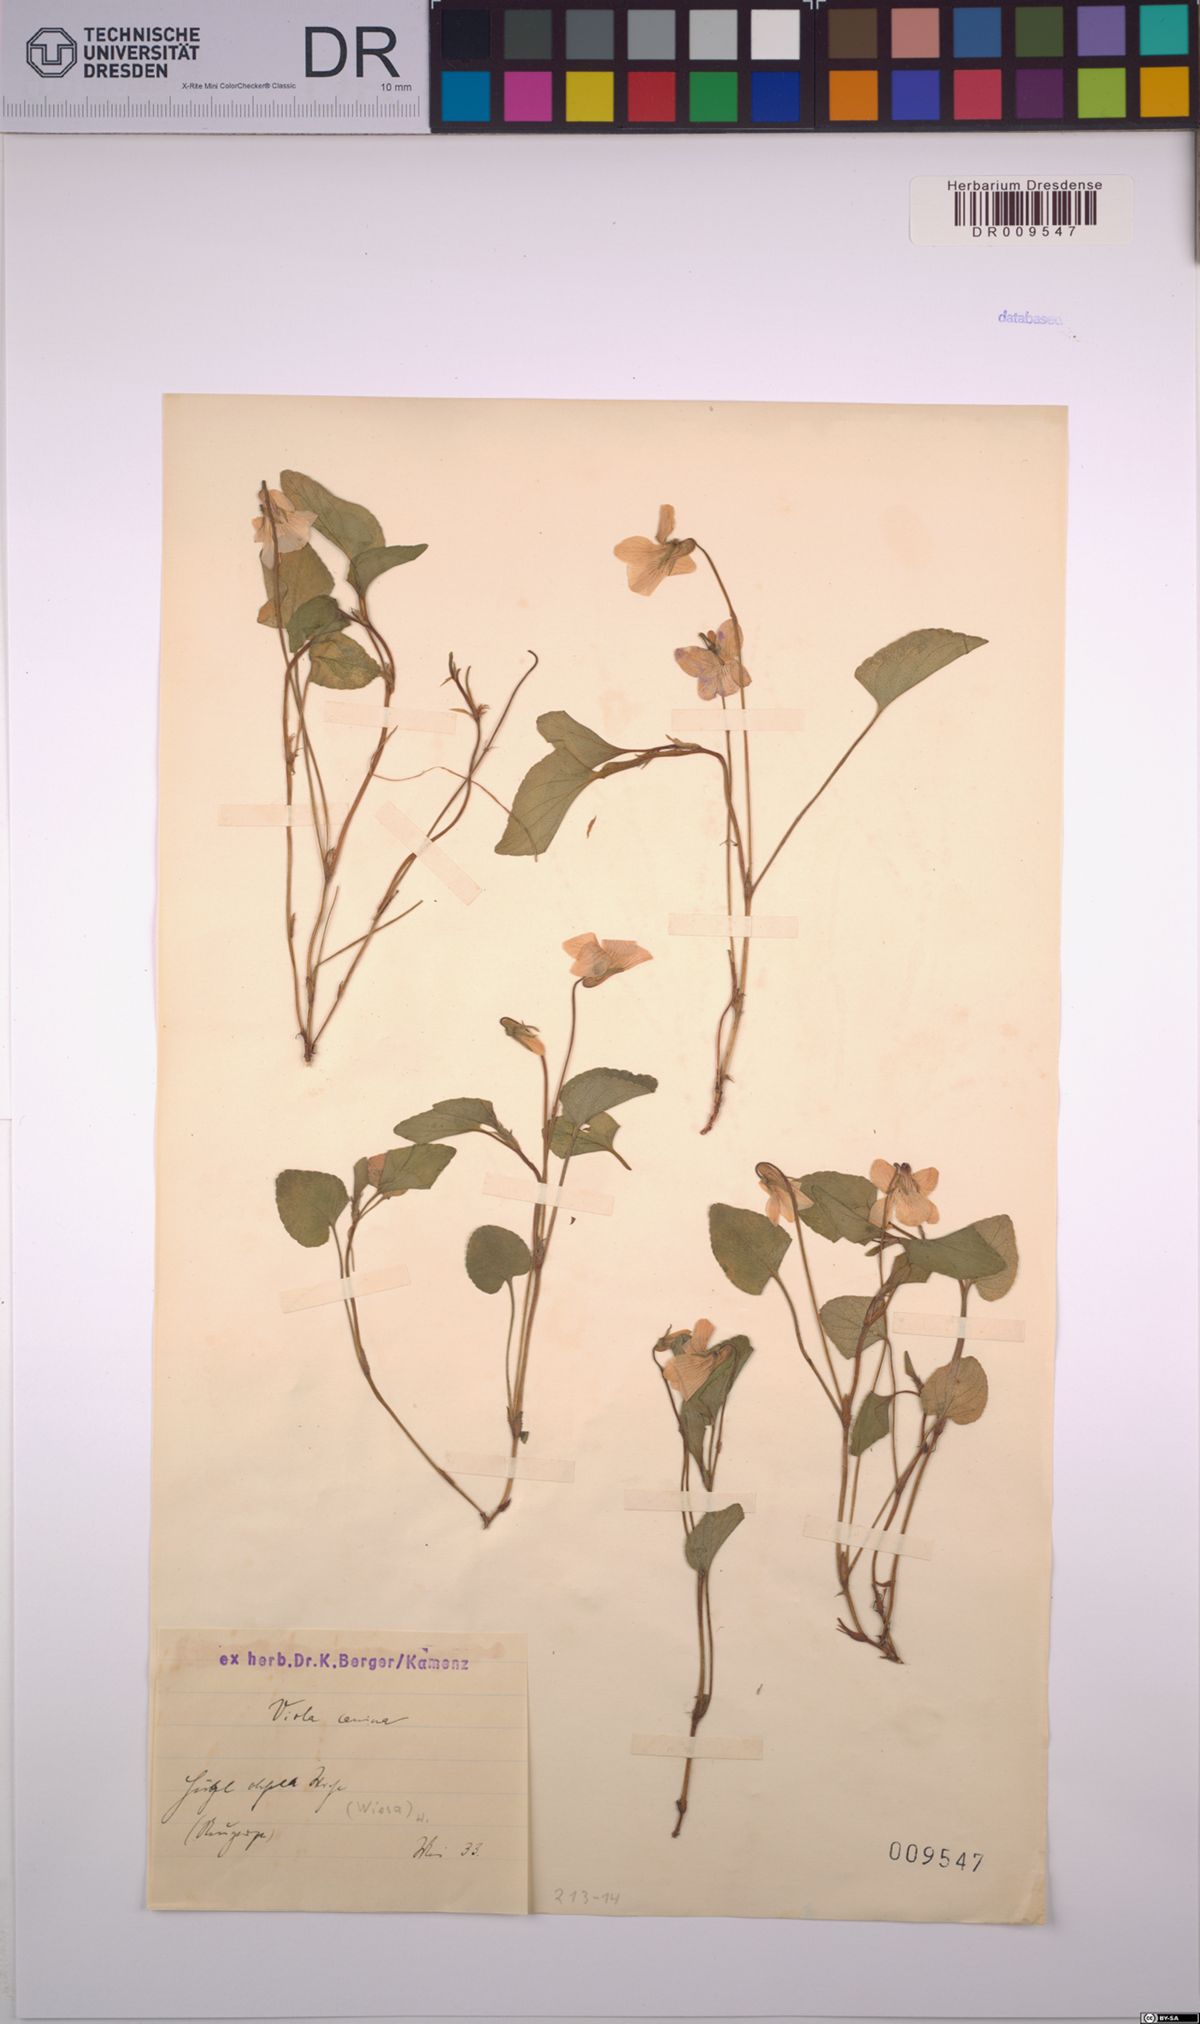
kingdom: Plantae
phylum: Tracheophyta
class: Magnoliopsida
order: Malpighiales
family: Violaceae
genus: Viola
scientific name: Viola canina
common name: Heath dog-violet
